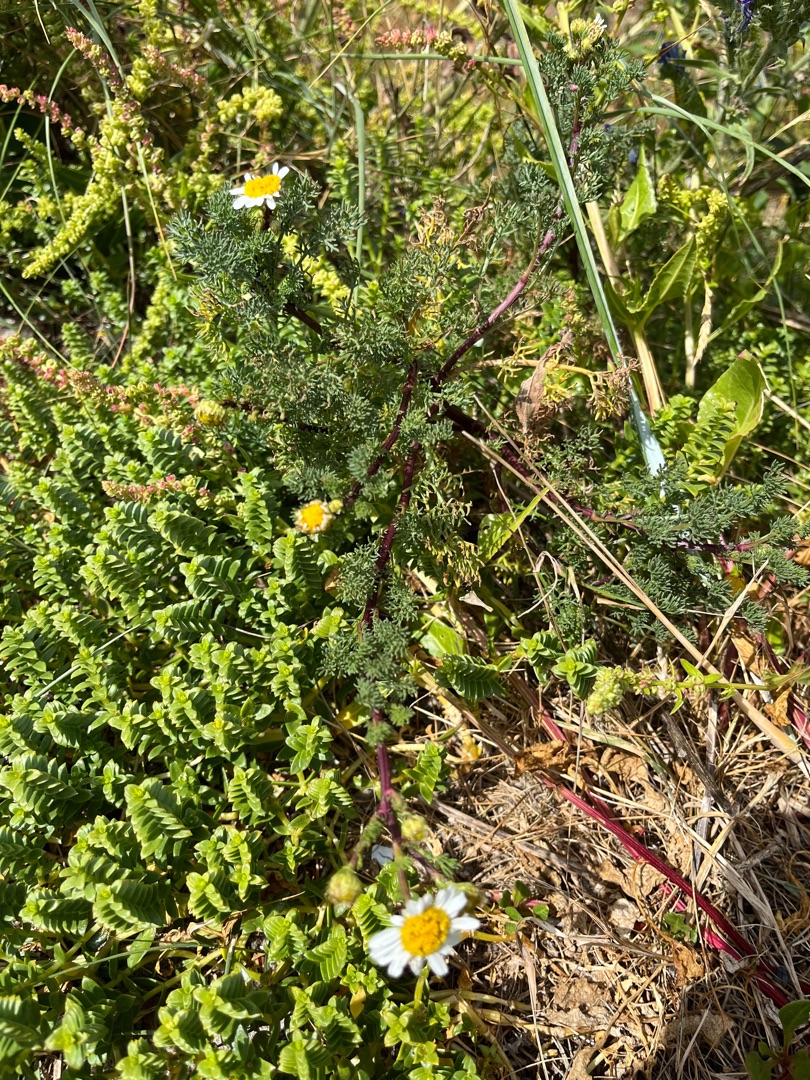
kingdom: Plantae
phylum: Tracheophyta
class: Magnoliopsida
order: Asterales
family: Asteraceae
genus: Tripleurospermum
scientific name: Tripleurospermum maritimum
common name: Strand-kamille
